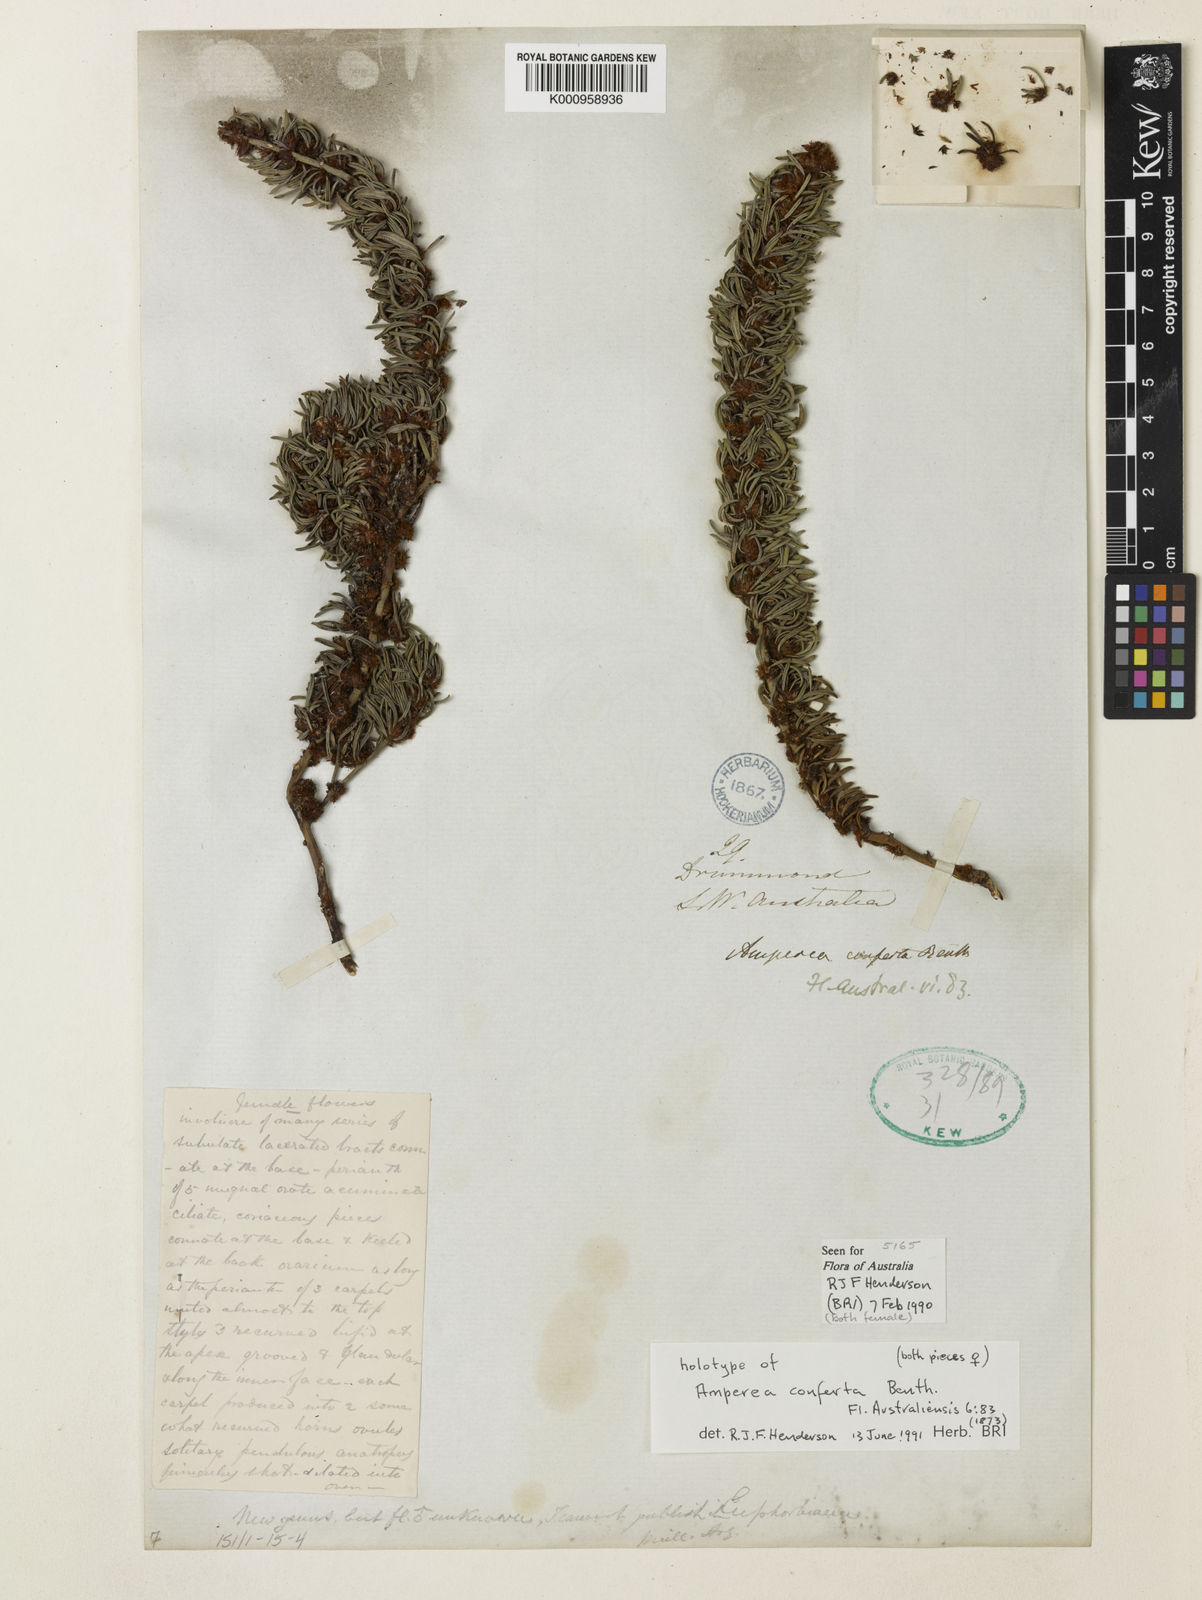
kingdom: Plantae
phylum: Tracheophyta
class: Magnoliopsida
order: Malpighiales
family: Euphorbiaceae
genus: Amperea
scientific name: Amperea conferta
